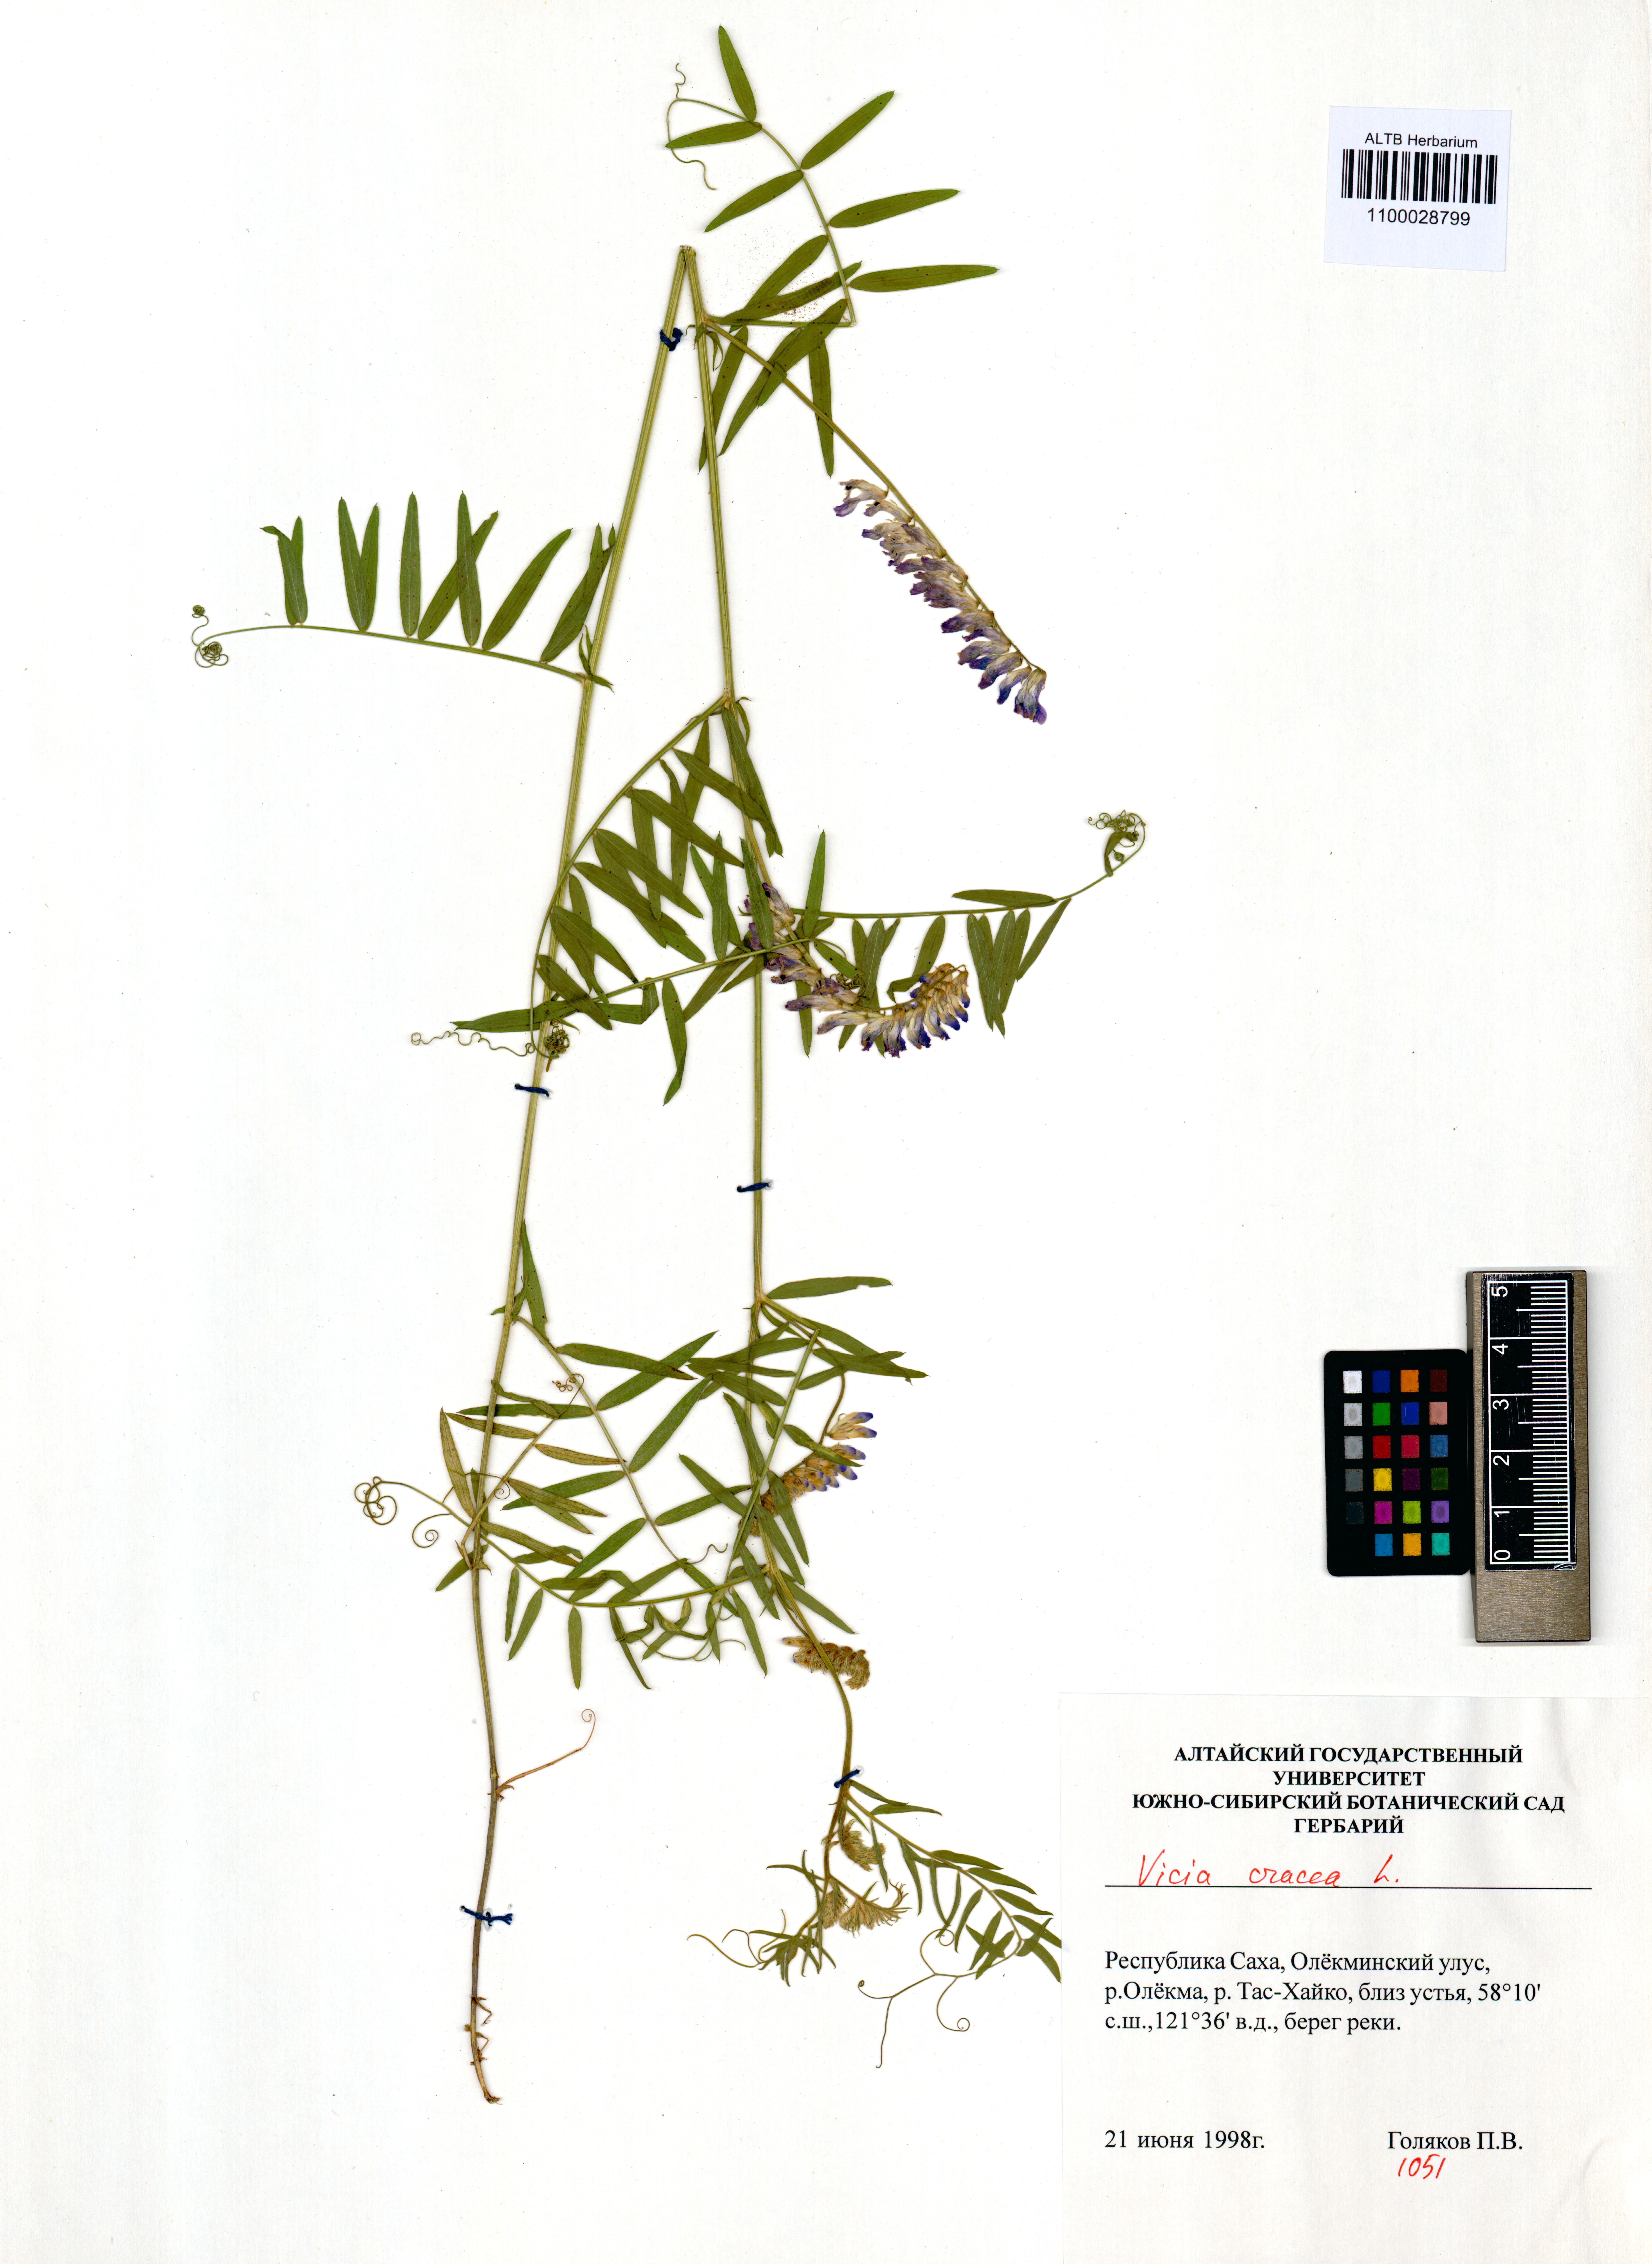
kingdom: Plantae
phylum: Tracheophyta
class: Magnoliopsida
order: Fabales
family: Fabaceae
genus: Vicia
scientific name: Vicia cracca
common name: Bird vetch
